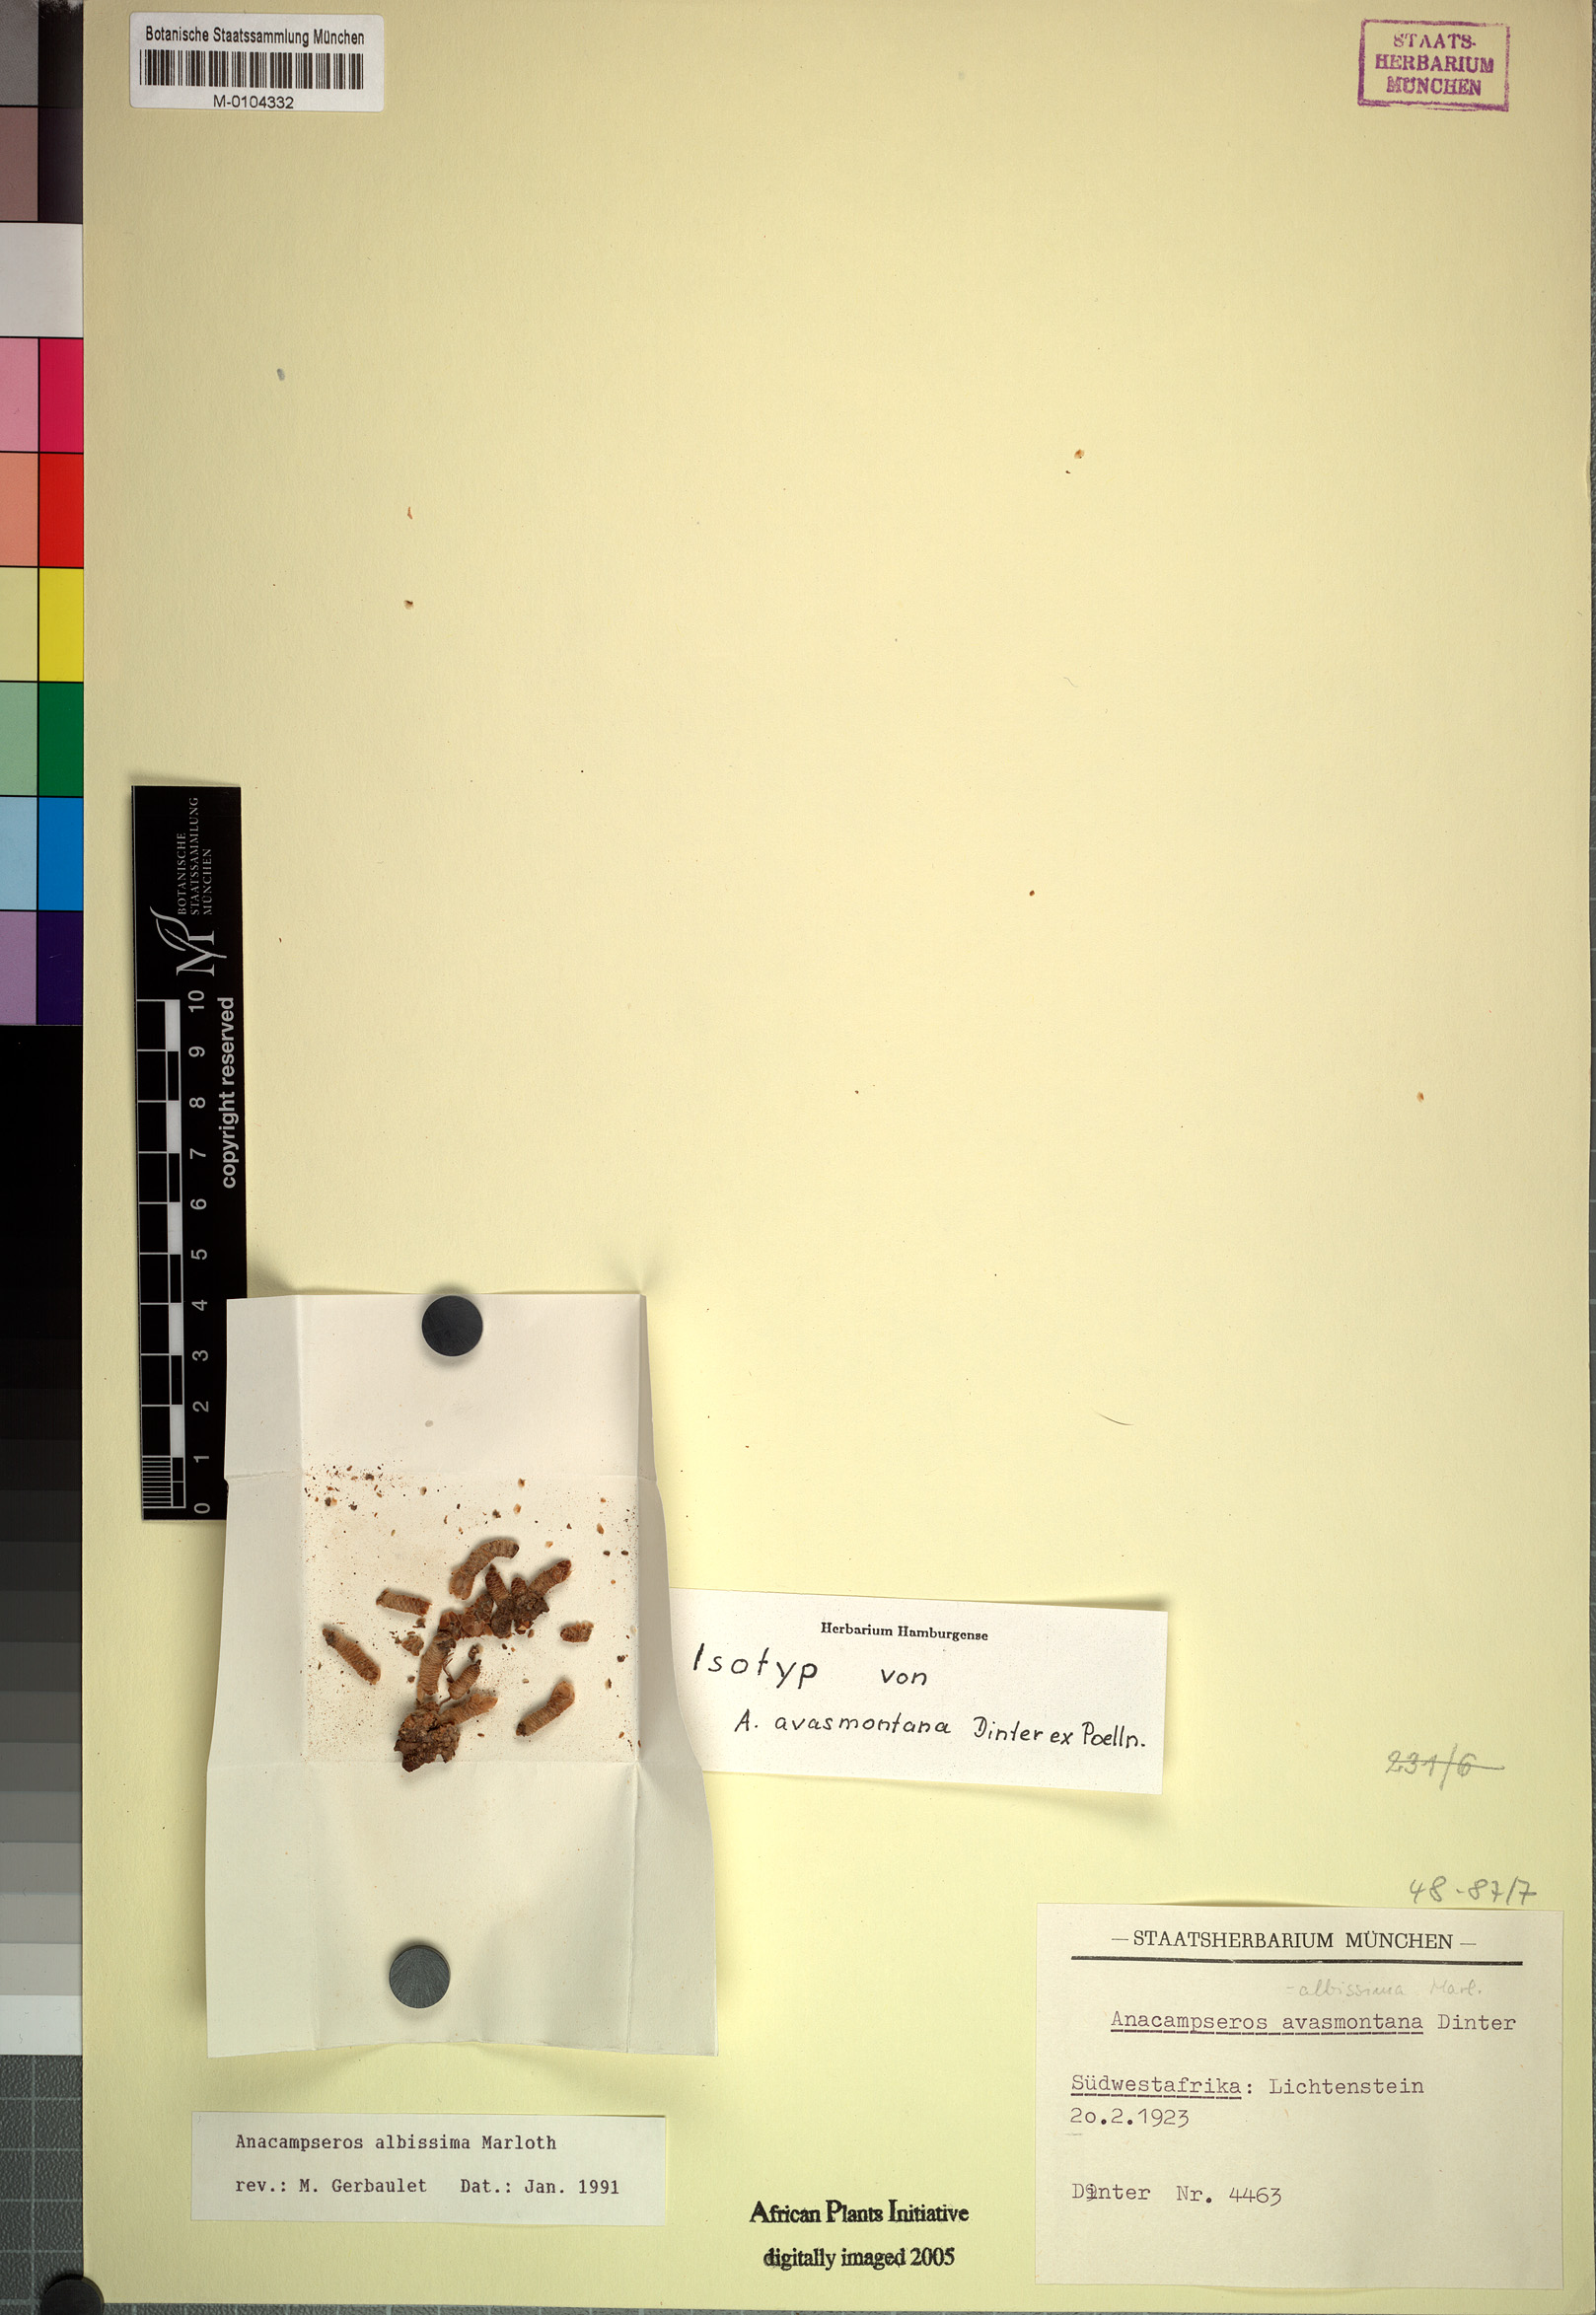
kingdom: Plantae
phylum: Tracheophyta
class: Magnoliopsida
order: Caryophyllales
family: Anacampserotaceae
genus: Avonia
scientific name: Avonia albissima
